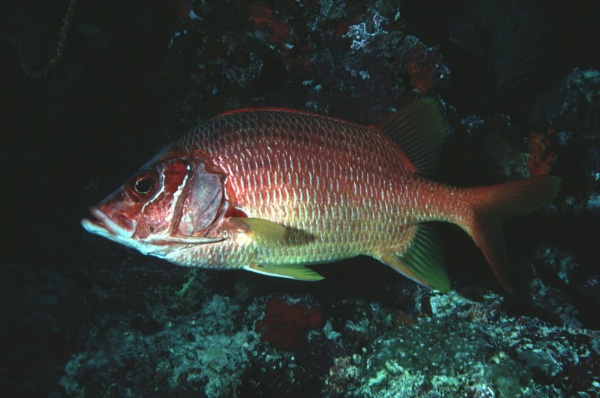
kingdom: Animalia
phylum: Chordata
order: Beryciformes
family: Holocentridae
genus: Sargocentron
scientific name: Sargocentron spiniferum
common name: Giant squirrelfish
